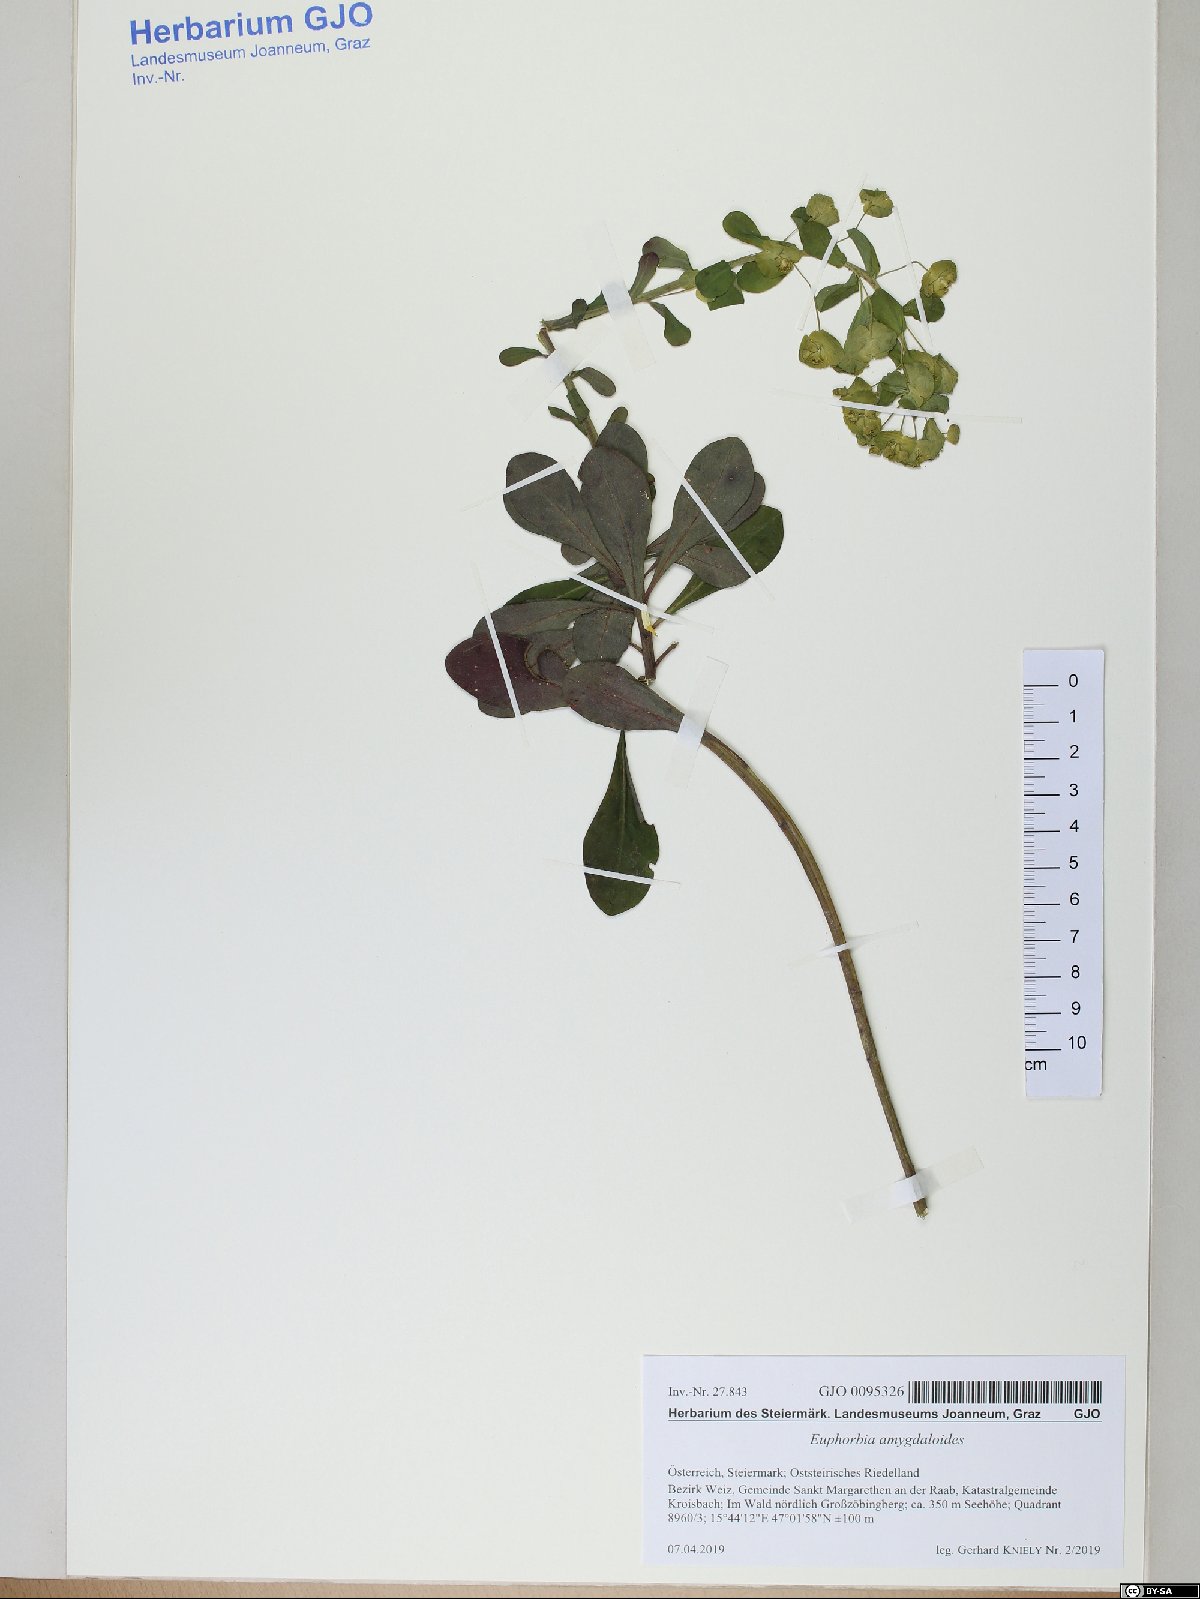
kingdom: Plantae
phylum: Tracheophyta
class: Magnoliopsida
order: Malpighiales
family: Euphorbiaceae
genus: Euphorbia
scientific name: Euphorbia amygdaloides
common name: Wood spurge
